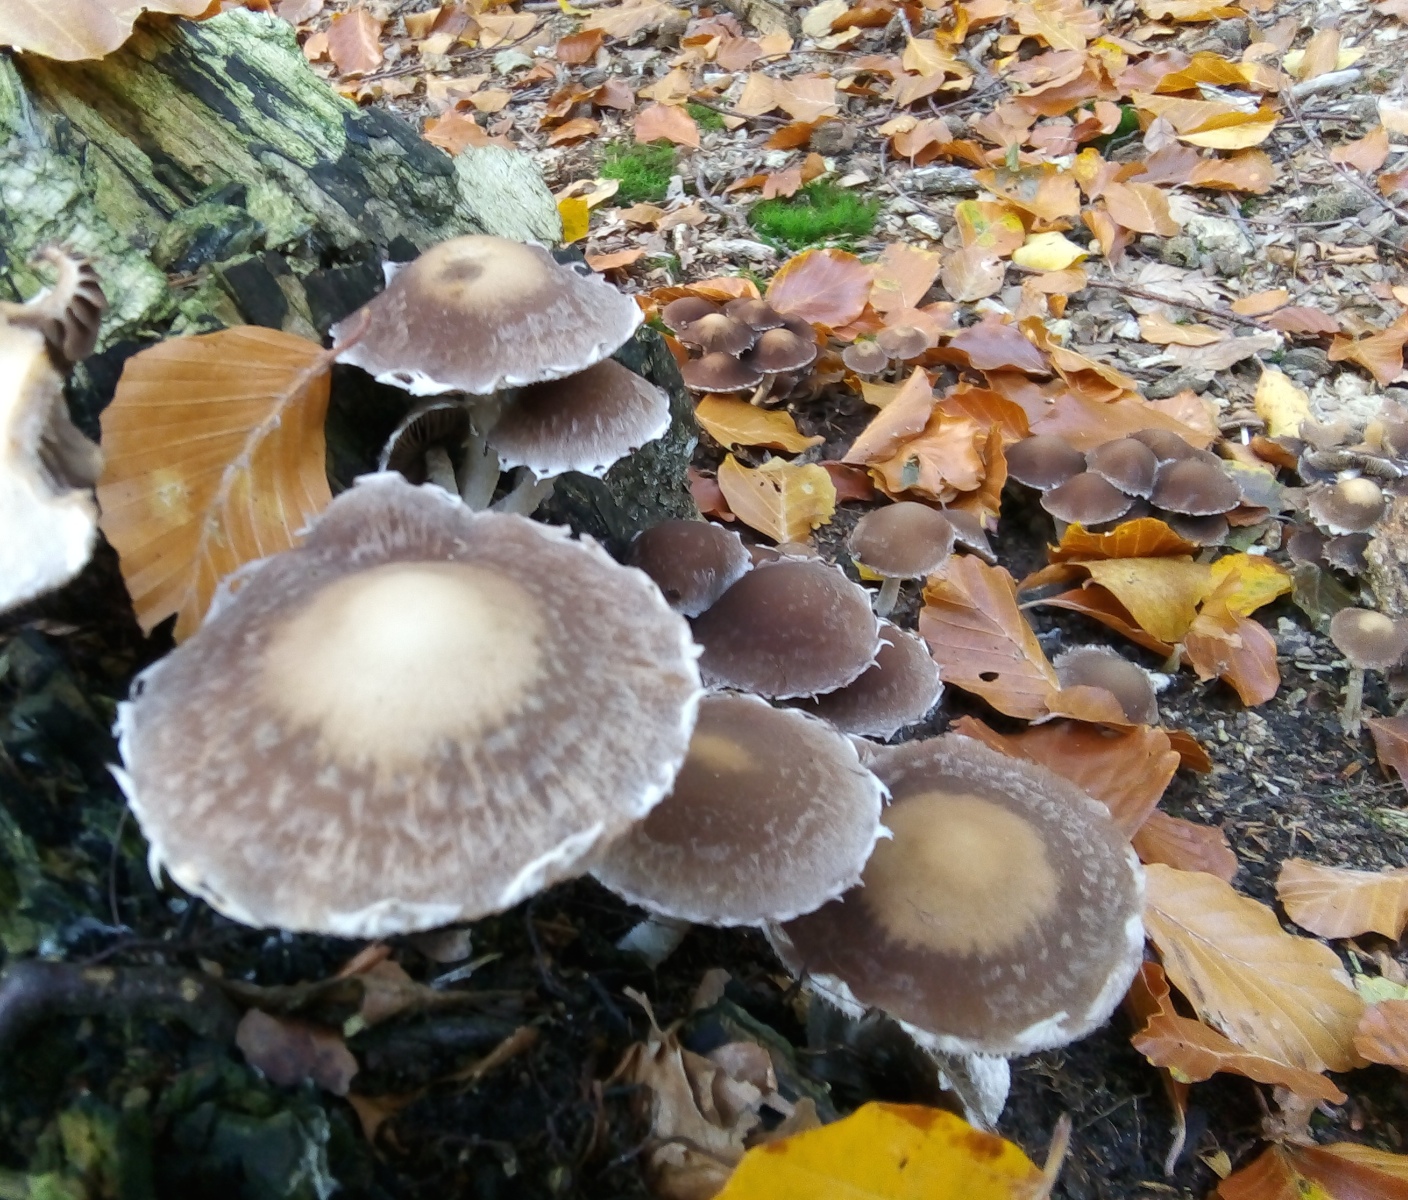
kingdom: Fungi
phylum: Basidiomycota
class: Agaricomycetes
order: Agaricales
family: Psathyrellaceae
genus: Psathyrella
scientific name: Psathyrella spintrigeroides
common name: tandet mørkhat
